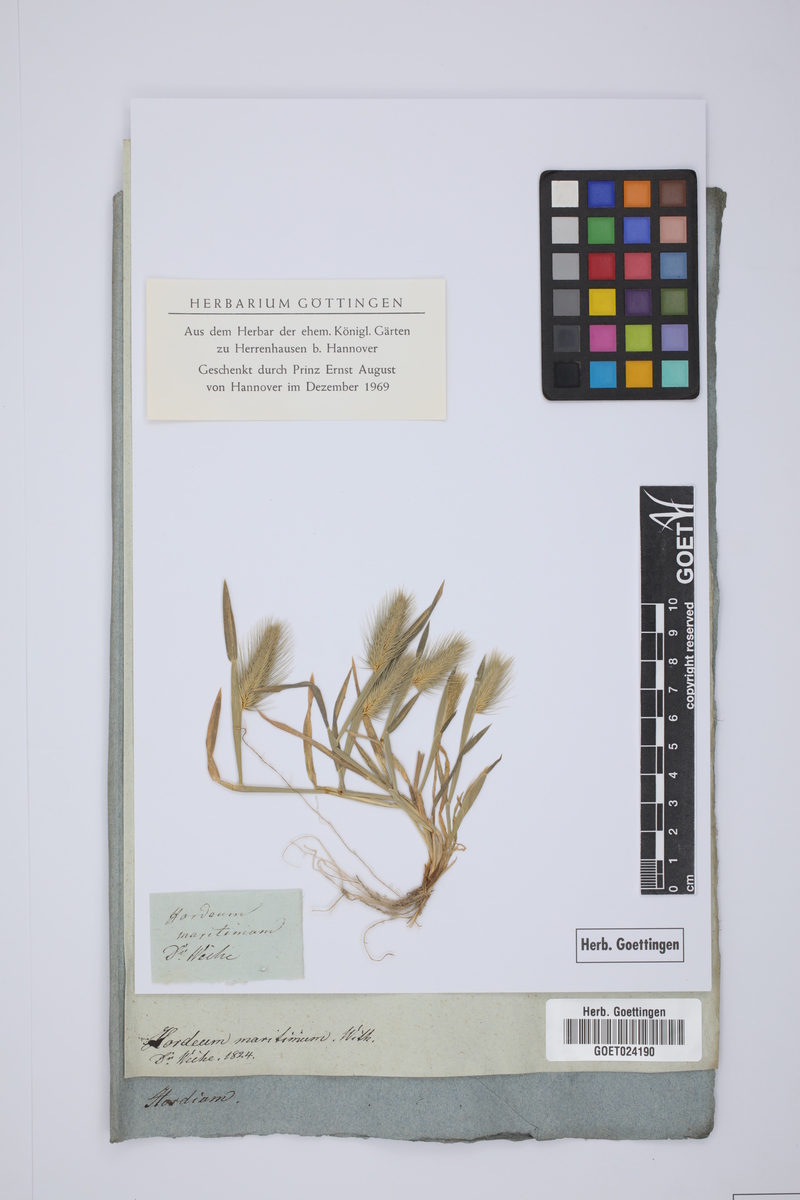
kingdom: Plantae
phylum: Tracheophyta
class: Liliopsida
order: Poales
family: Poaceae
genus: Hordeum
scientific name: Hordeum marinum
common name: Sea barley
